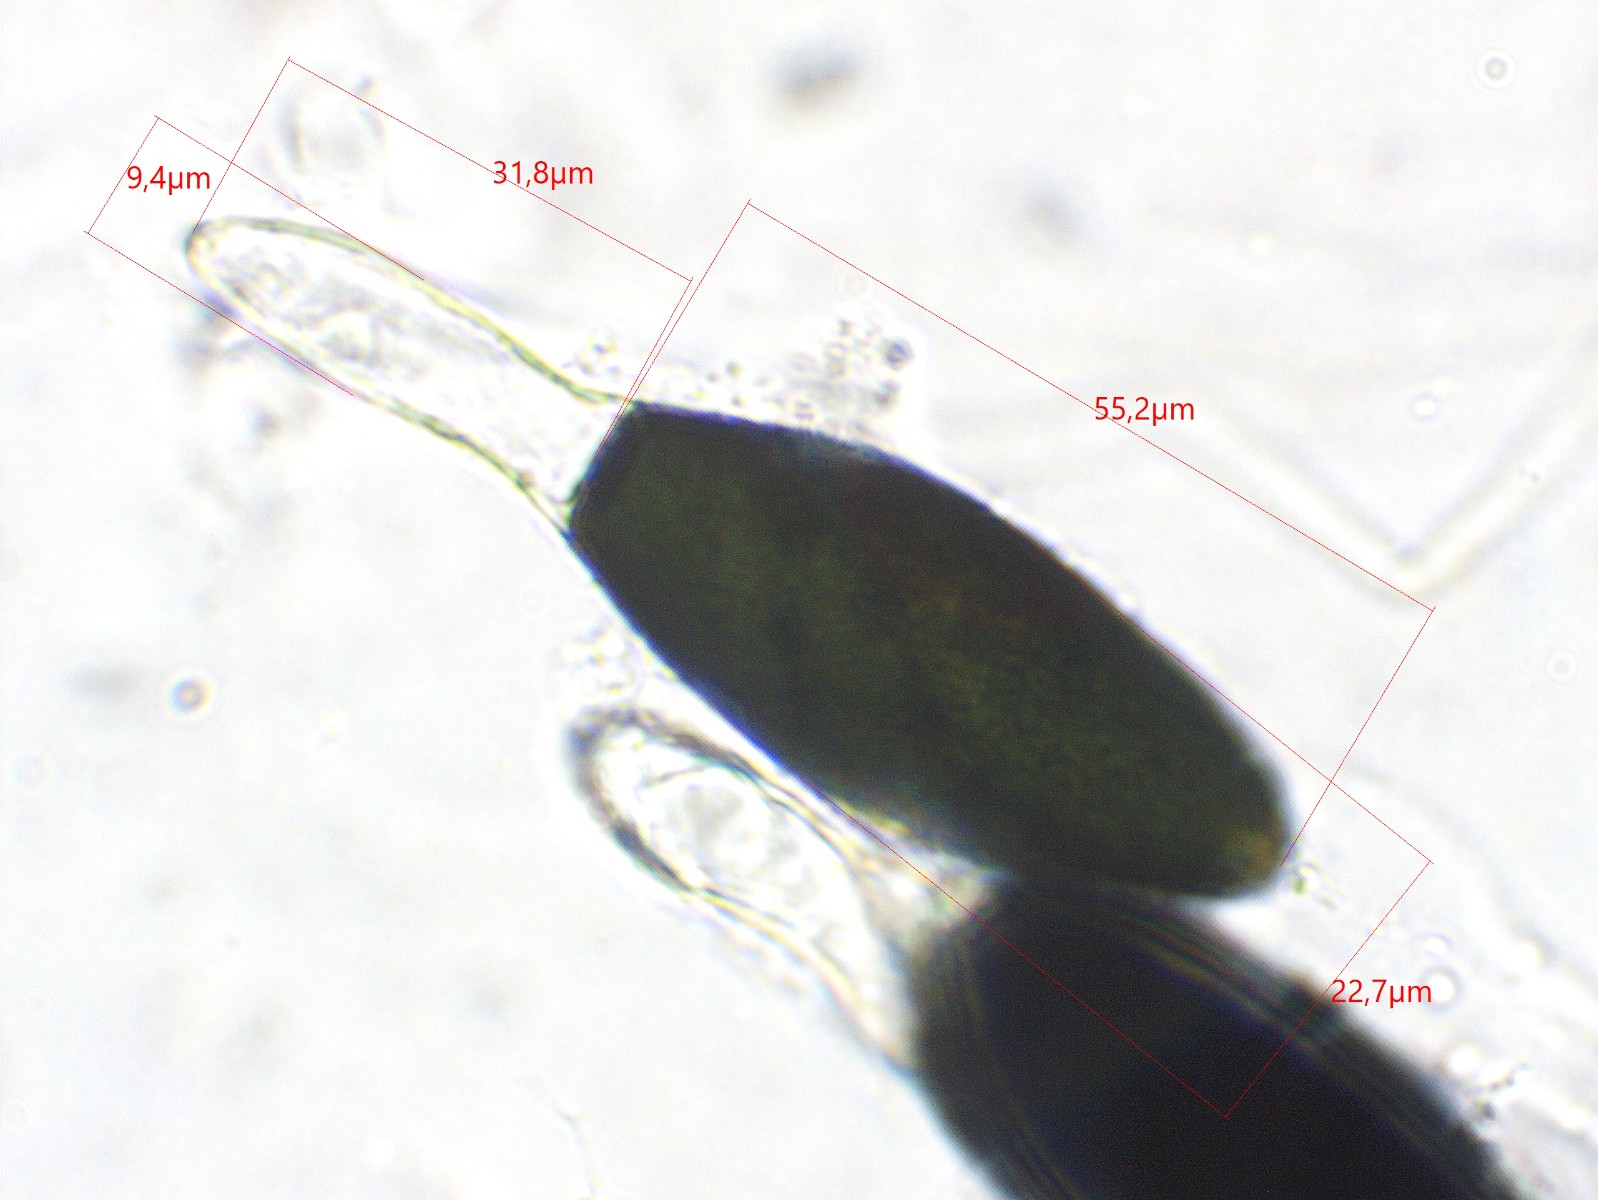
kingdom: Fungi
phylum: Ascomycota
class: Sordariomycetes
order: Sordariales
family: Podosporaceae
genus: Podospora
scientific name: Podospora intestinacea
